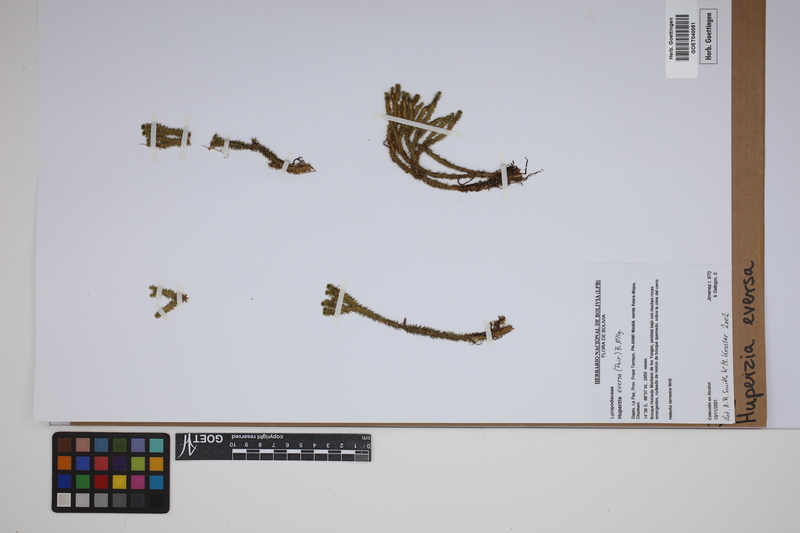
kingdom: Plantae
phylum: Tracheophyta
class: Lycopodiopsida
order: Lycopodiales
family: Lycopodiaceae
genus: Phlegmariurus
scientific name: Phlegmariurus eversus
